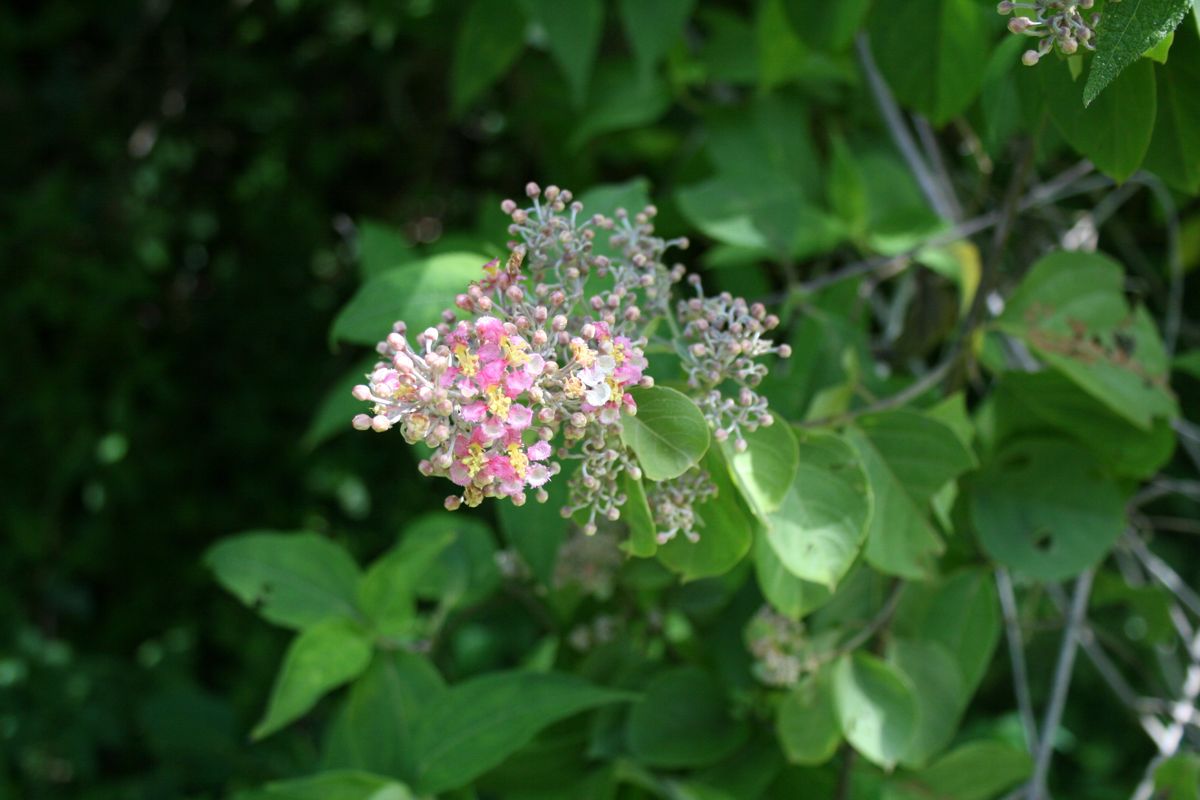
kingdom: Plantae
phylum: Tracheophyta
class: Magnoliopsida
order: Malpighiales
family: Malpighiaceae
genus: Banisteriopsis
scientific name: Banisteriopsis muricata
